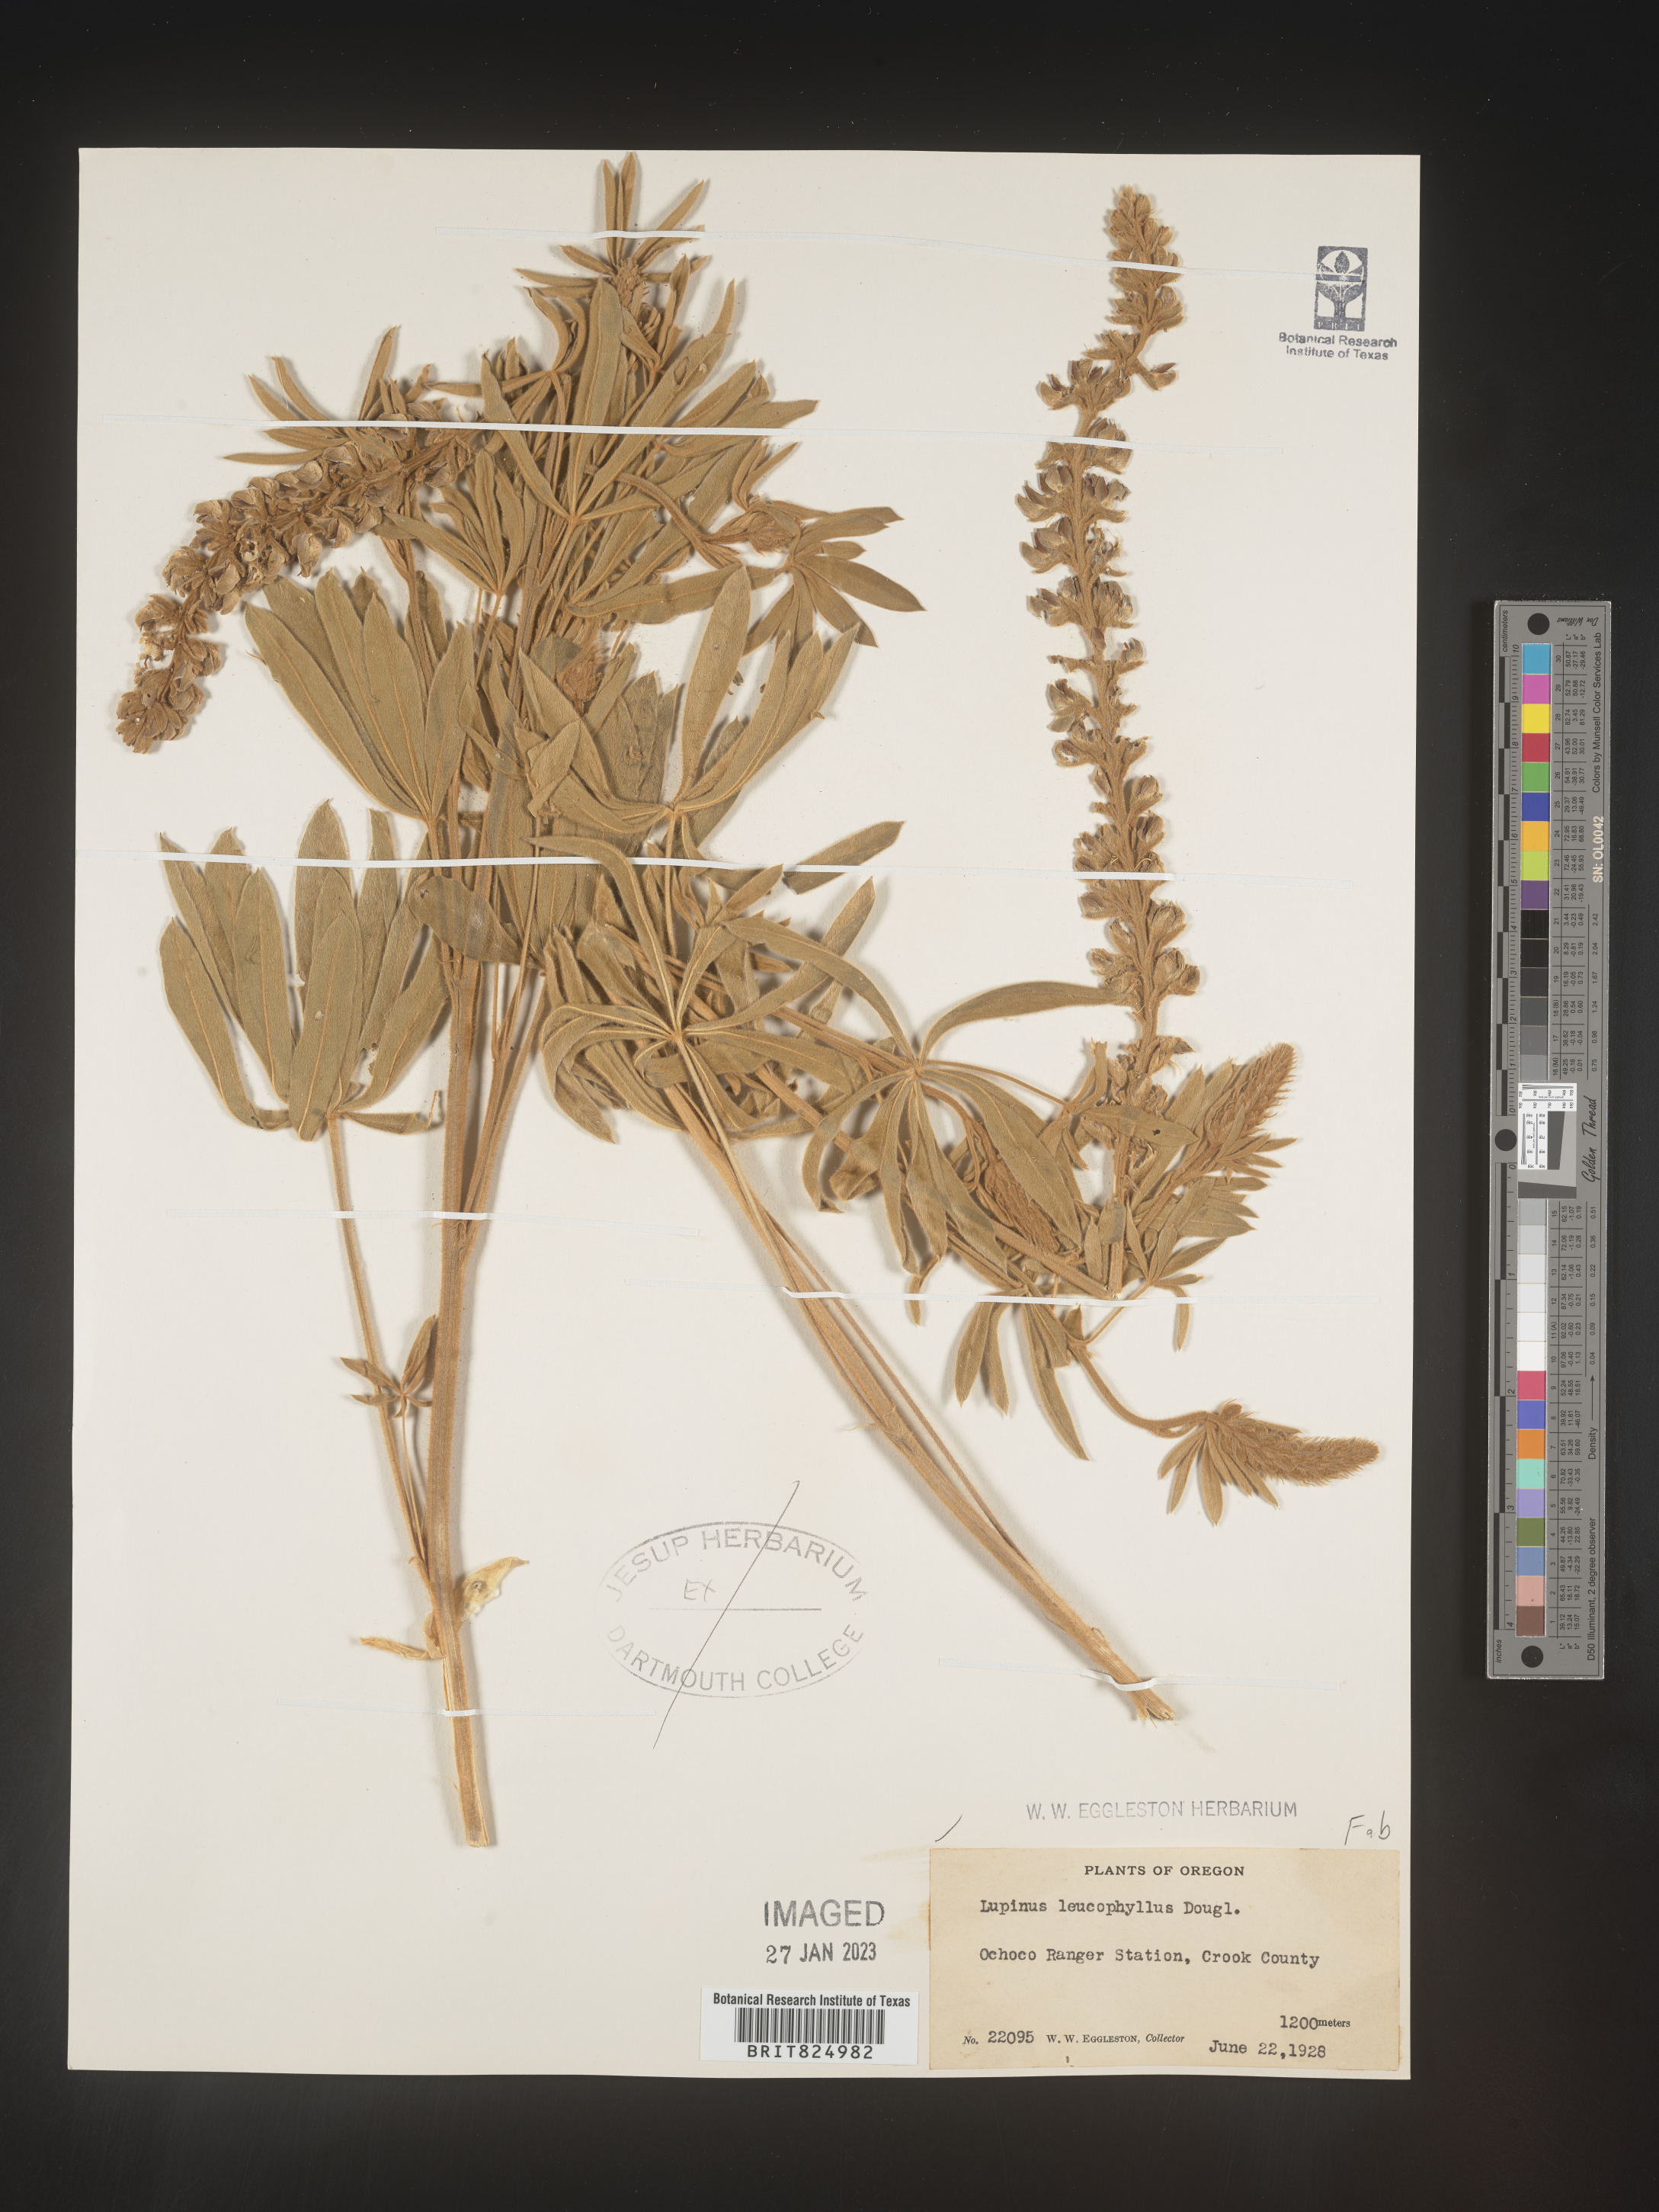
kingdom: Plantae
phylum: Tracheophyta
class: Magnoliopsida
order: Fabales
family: Fabaceae
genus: Lupinus
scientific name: Lupinus
